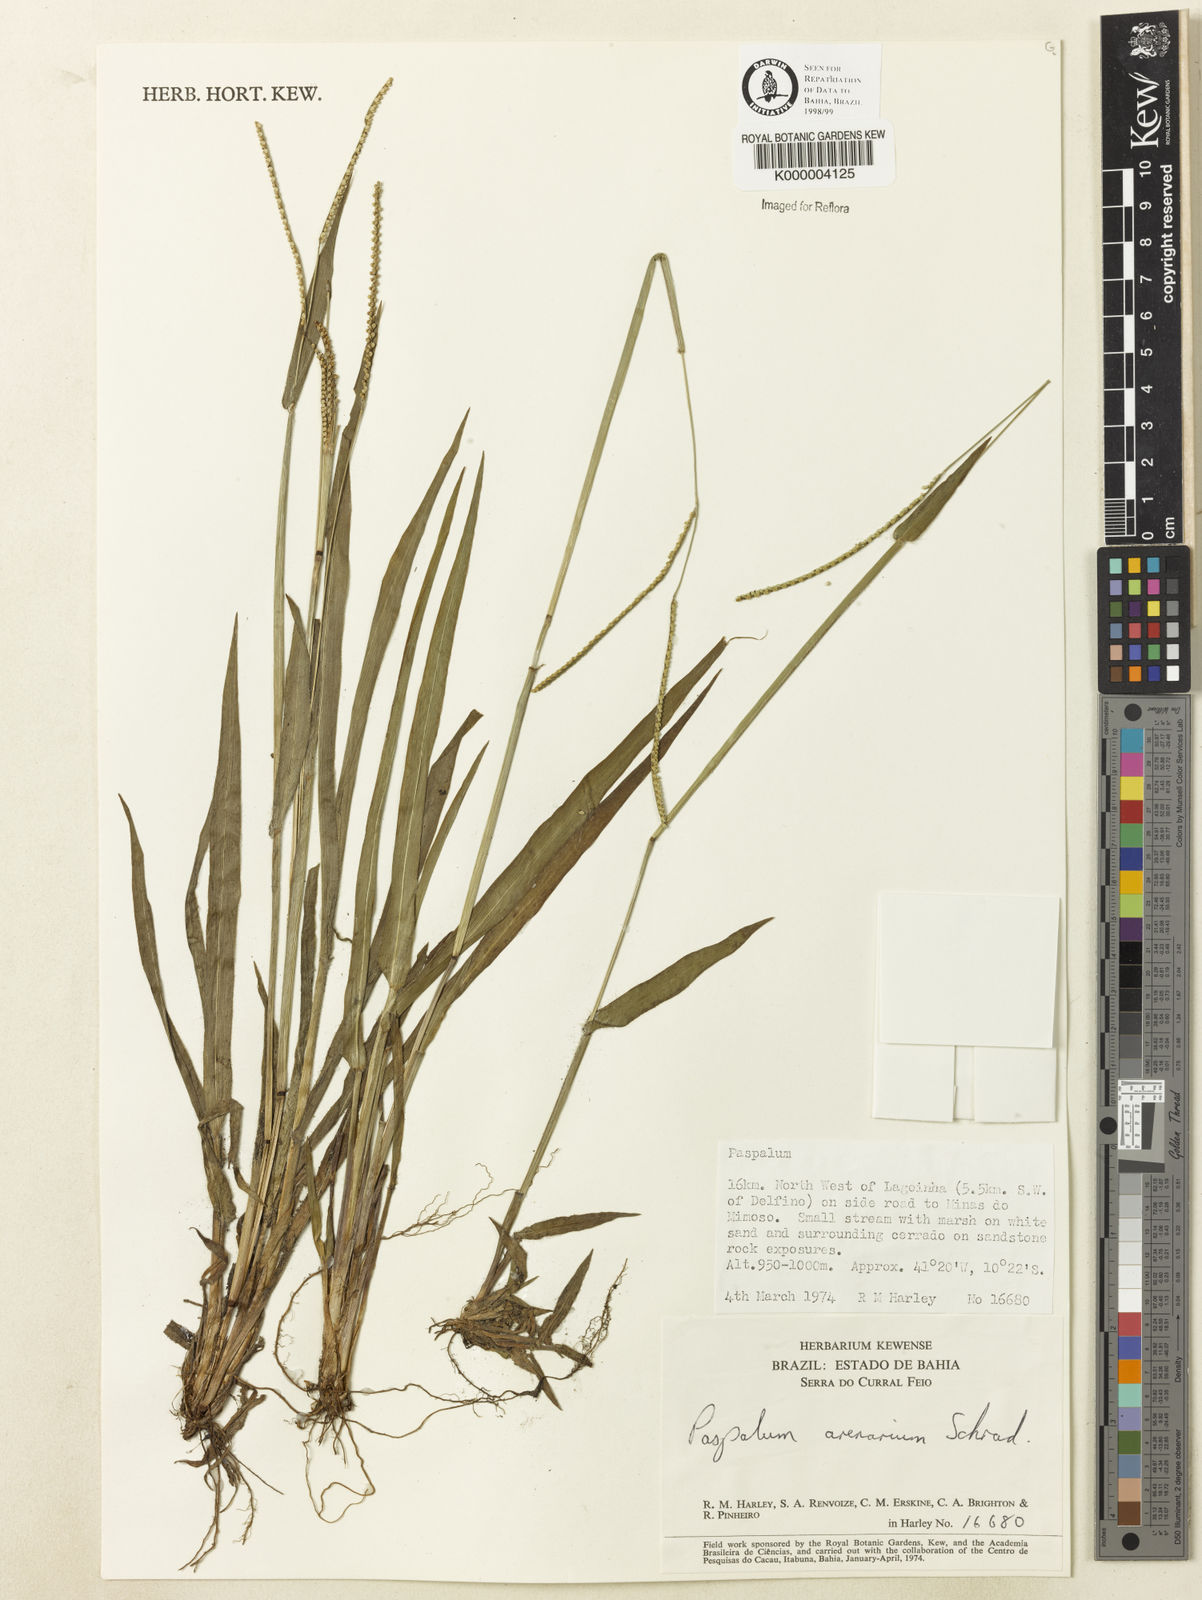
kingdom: Plantae
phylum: Tracheophyta
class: Liliopsida
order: Poales
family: Poaceae
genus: Paspalum
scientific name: Paspalum arenarium
